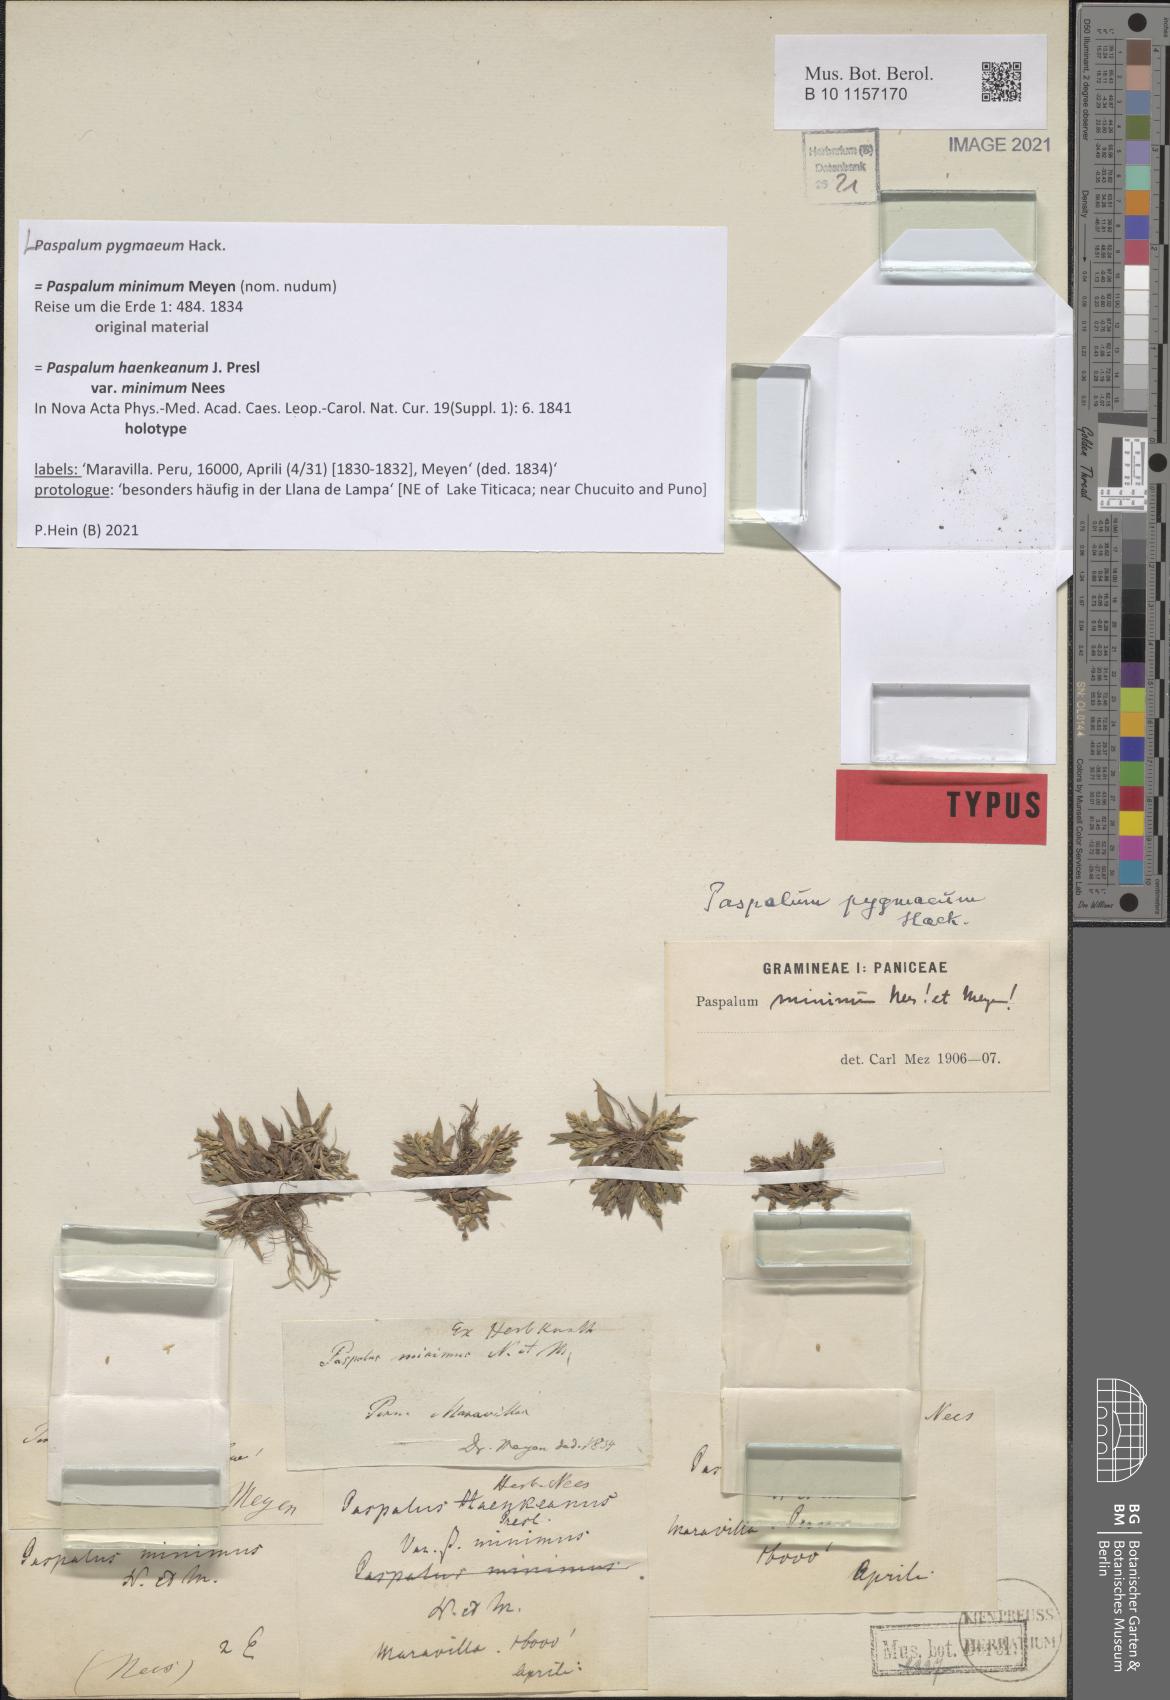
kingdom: Plantae
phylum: Tracheophyta
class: Liliopsida
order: Poales
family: Poaceae
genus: Paspalum
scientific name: Paspalum pygmaeum
